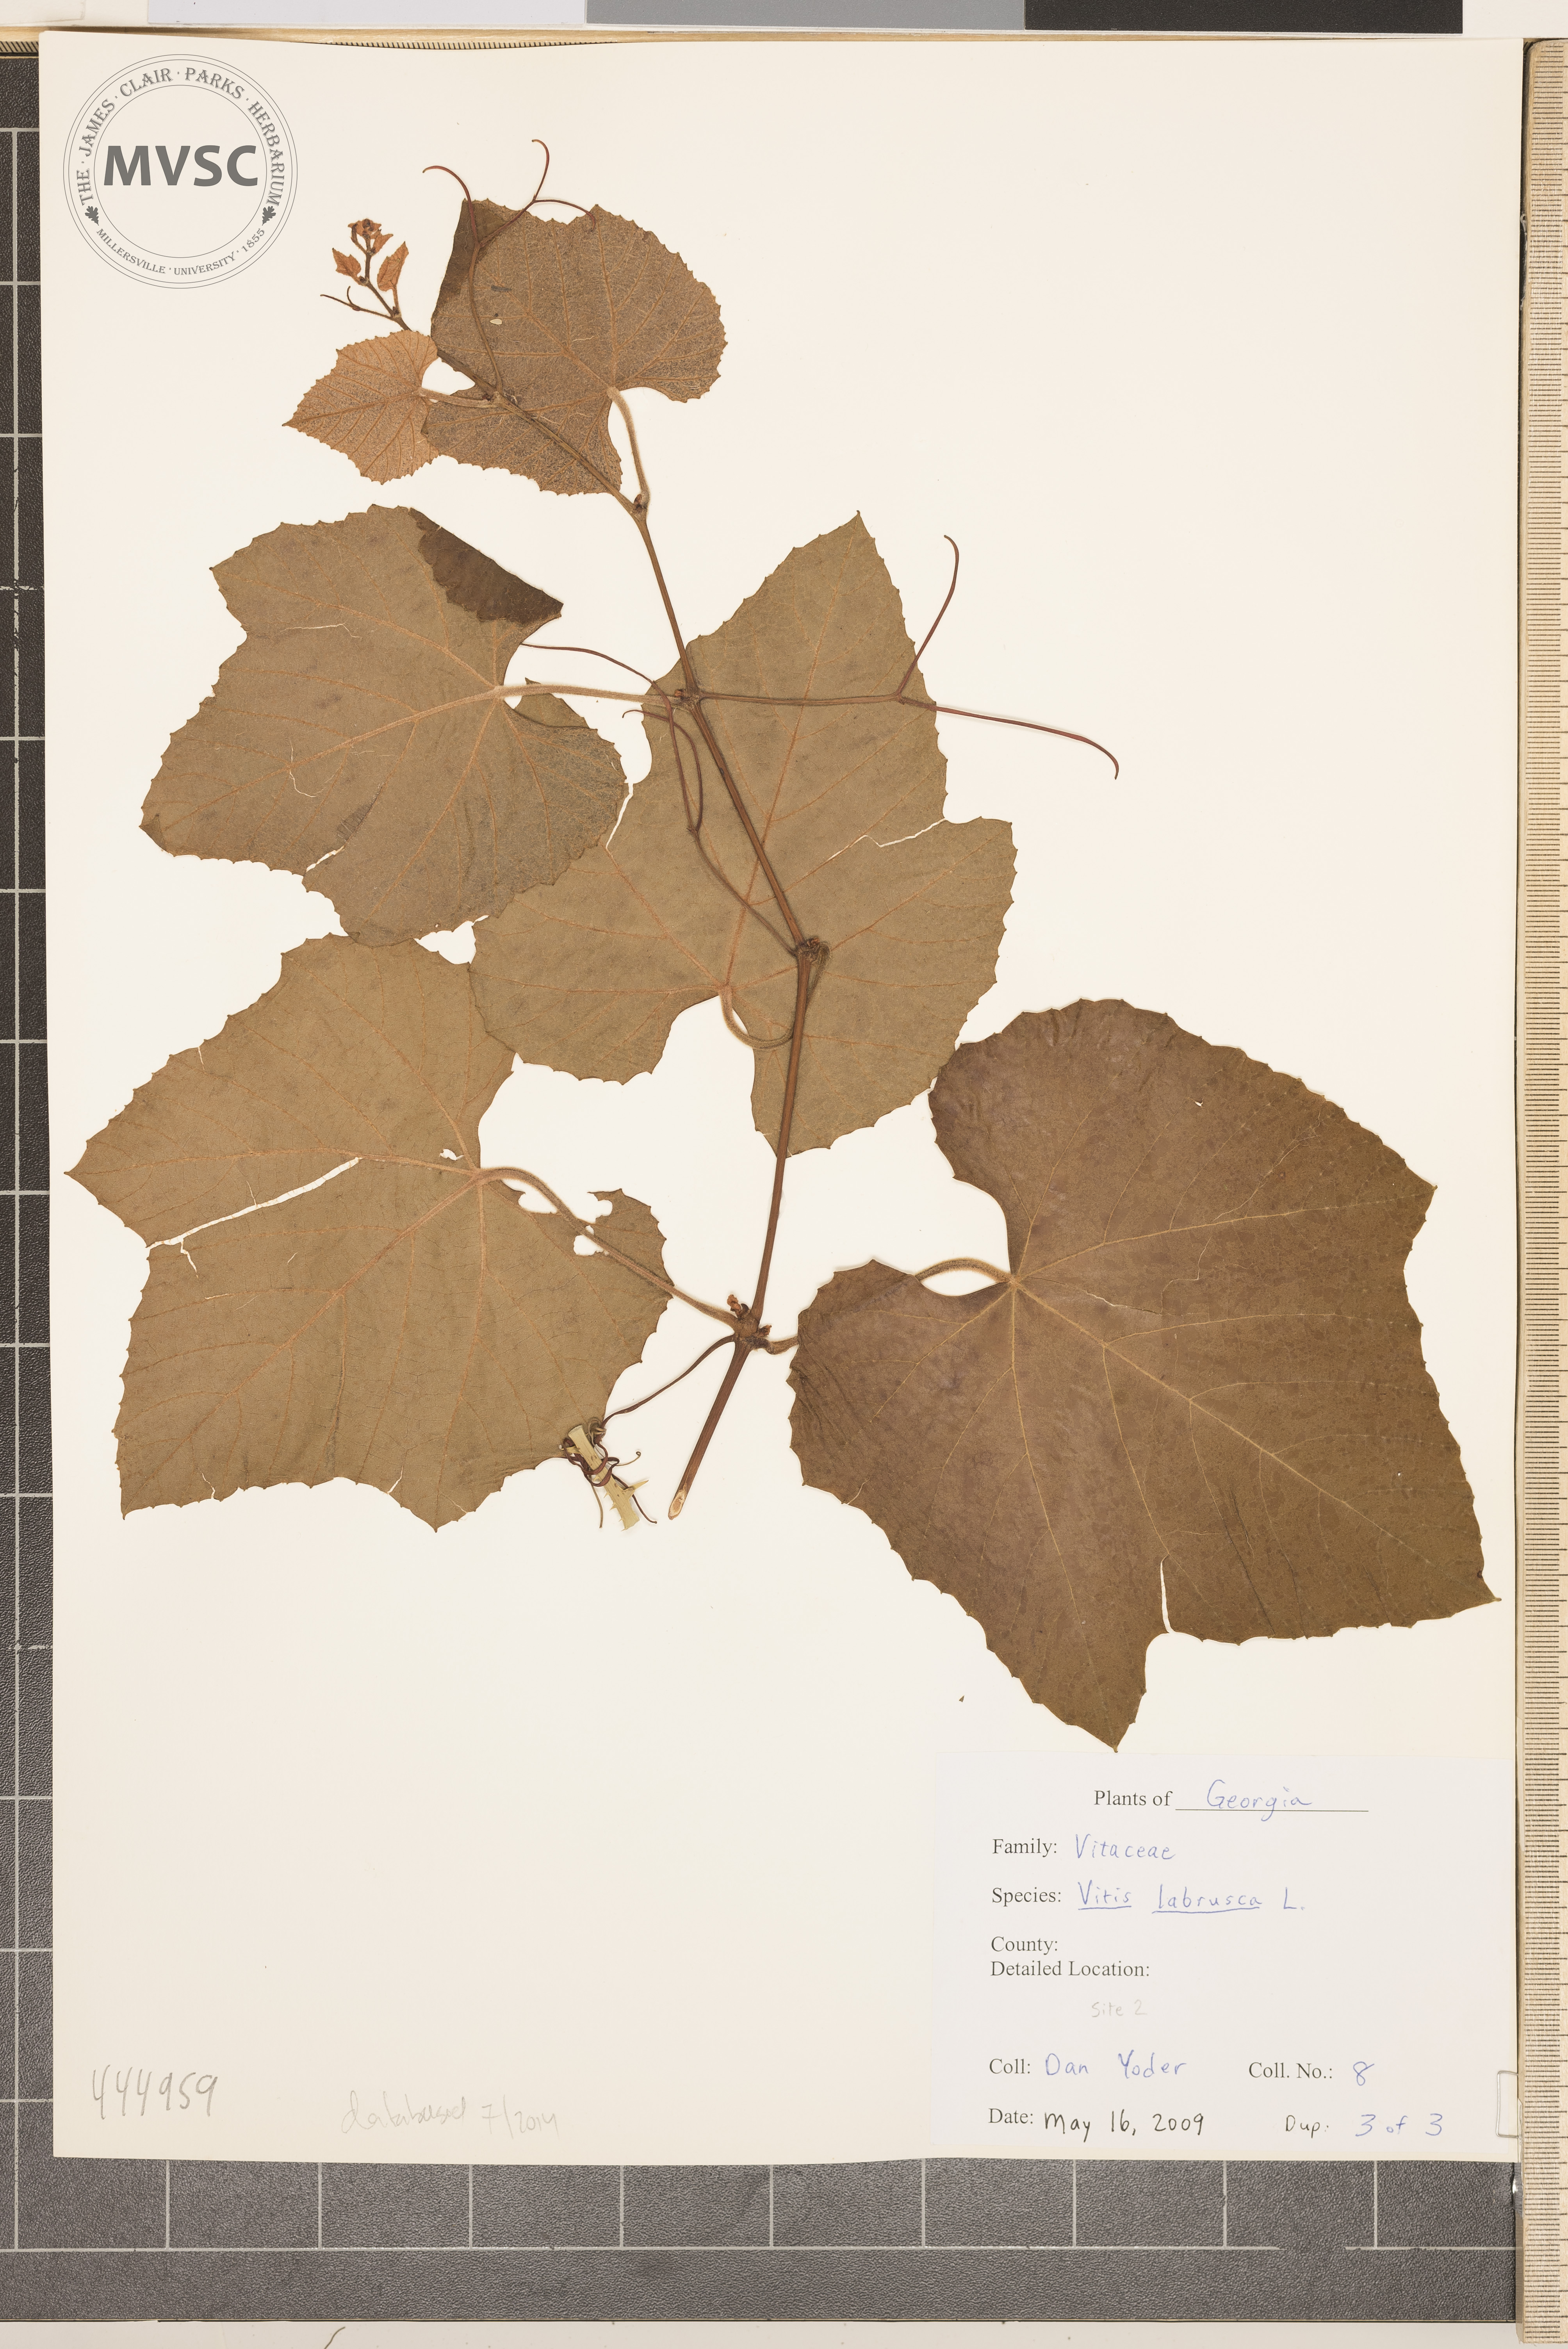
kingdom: Plantae
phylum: Tracheophyta
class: Magnoliopsida
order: Vitales
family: Vitaceae
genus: Vitis
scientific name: Vitis labrusca
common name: Fox grape
